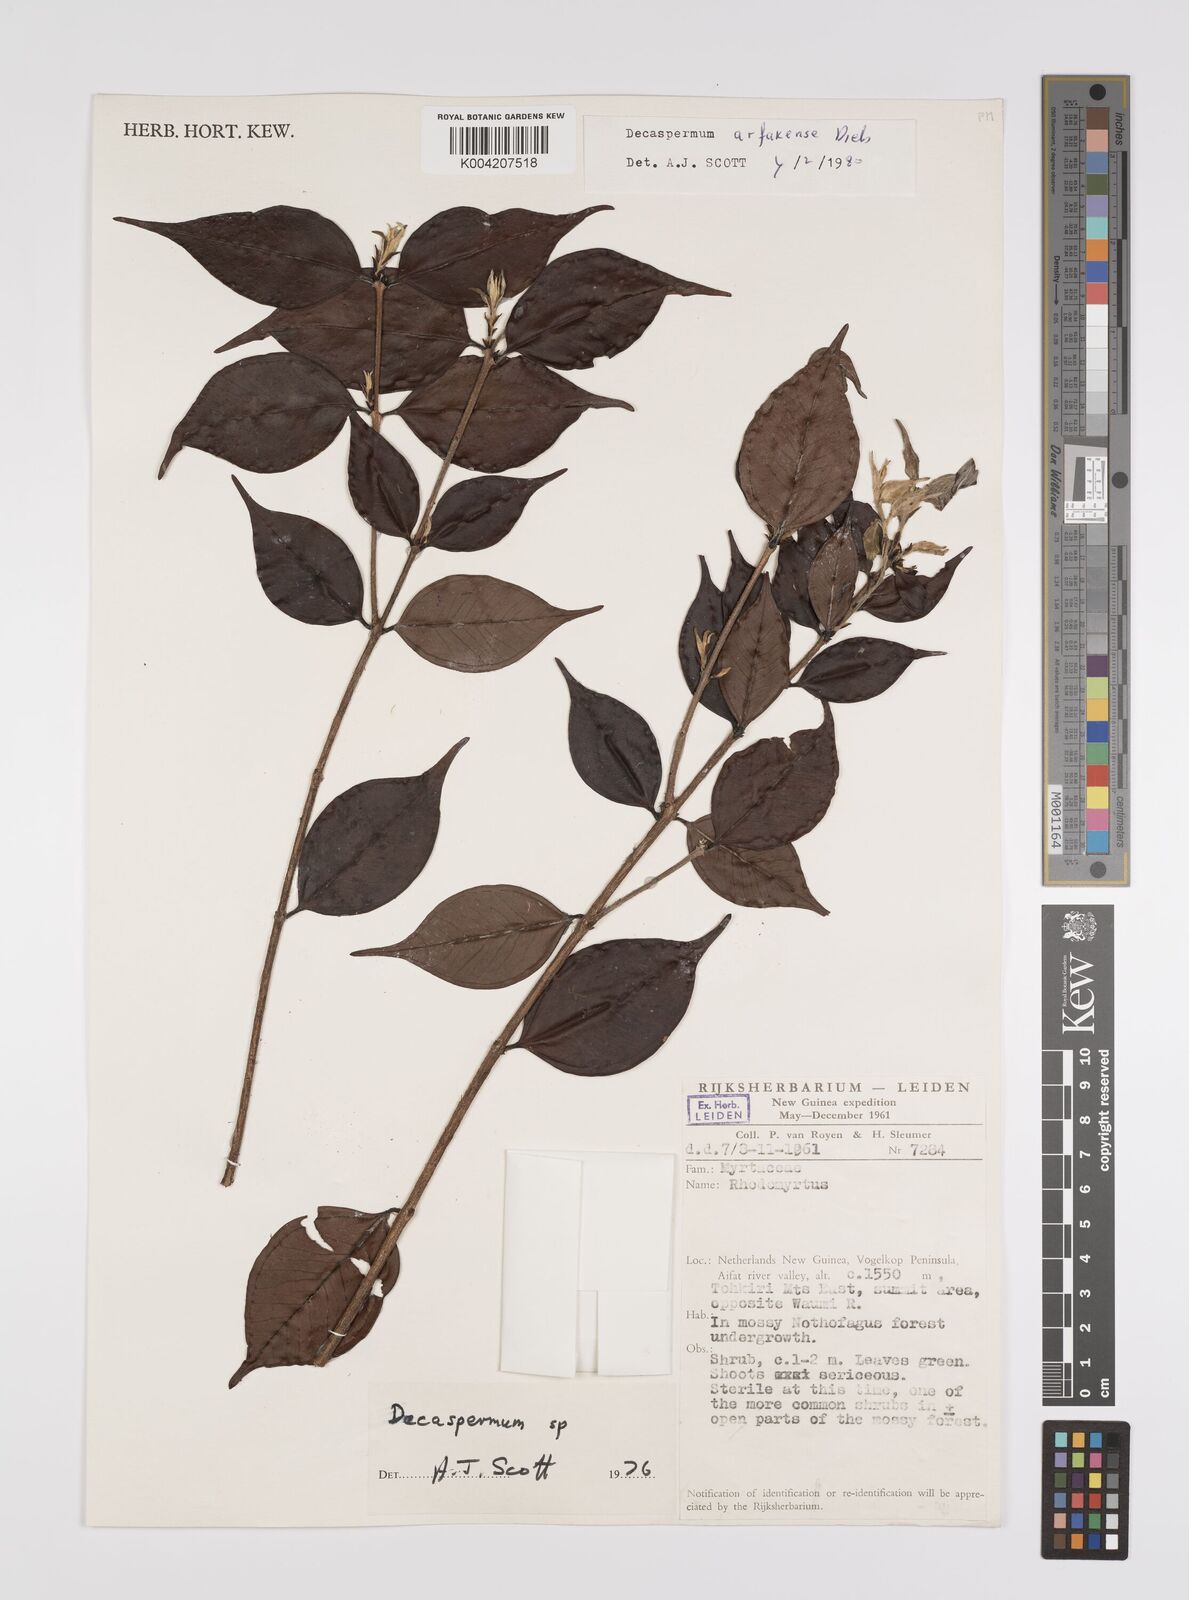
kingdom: Plantae
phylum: Tracheophyta
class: Magnoliopsida
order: Myrtales
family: Myrtaceae
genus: Decaspermum
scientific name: Decaspermum arfakense
